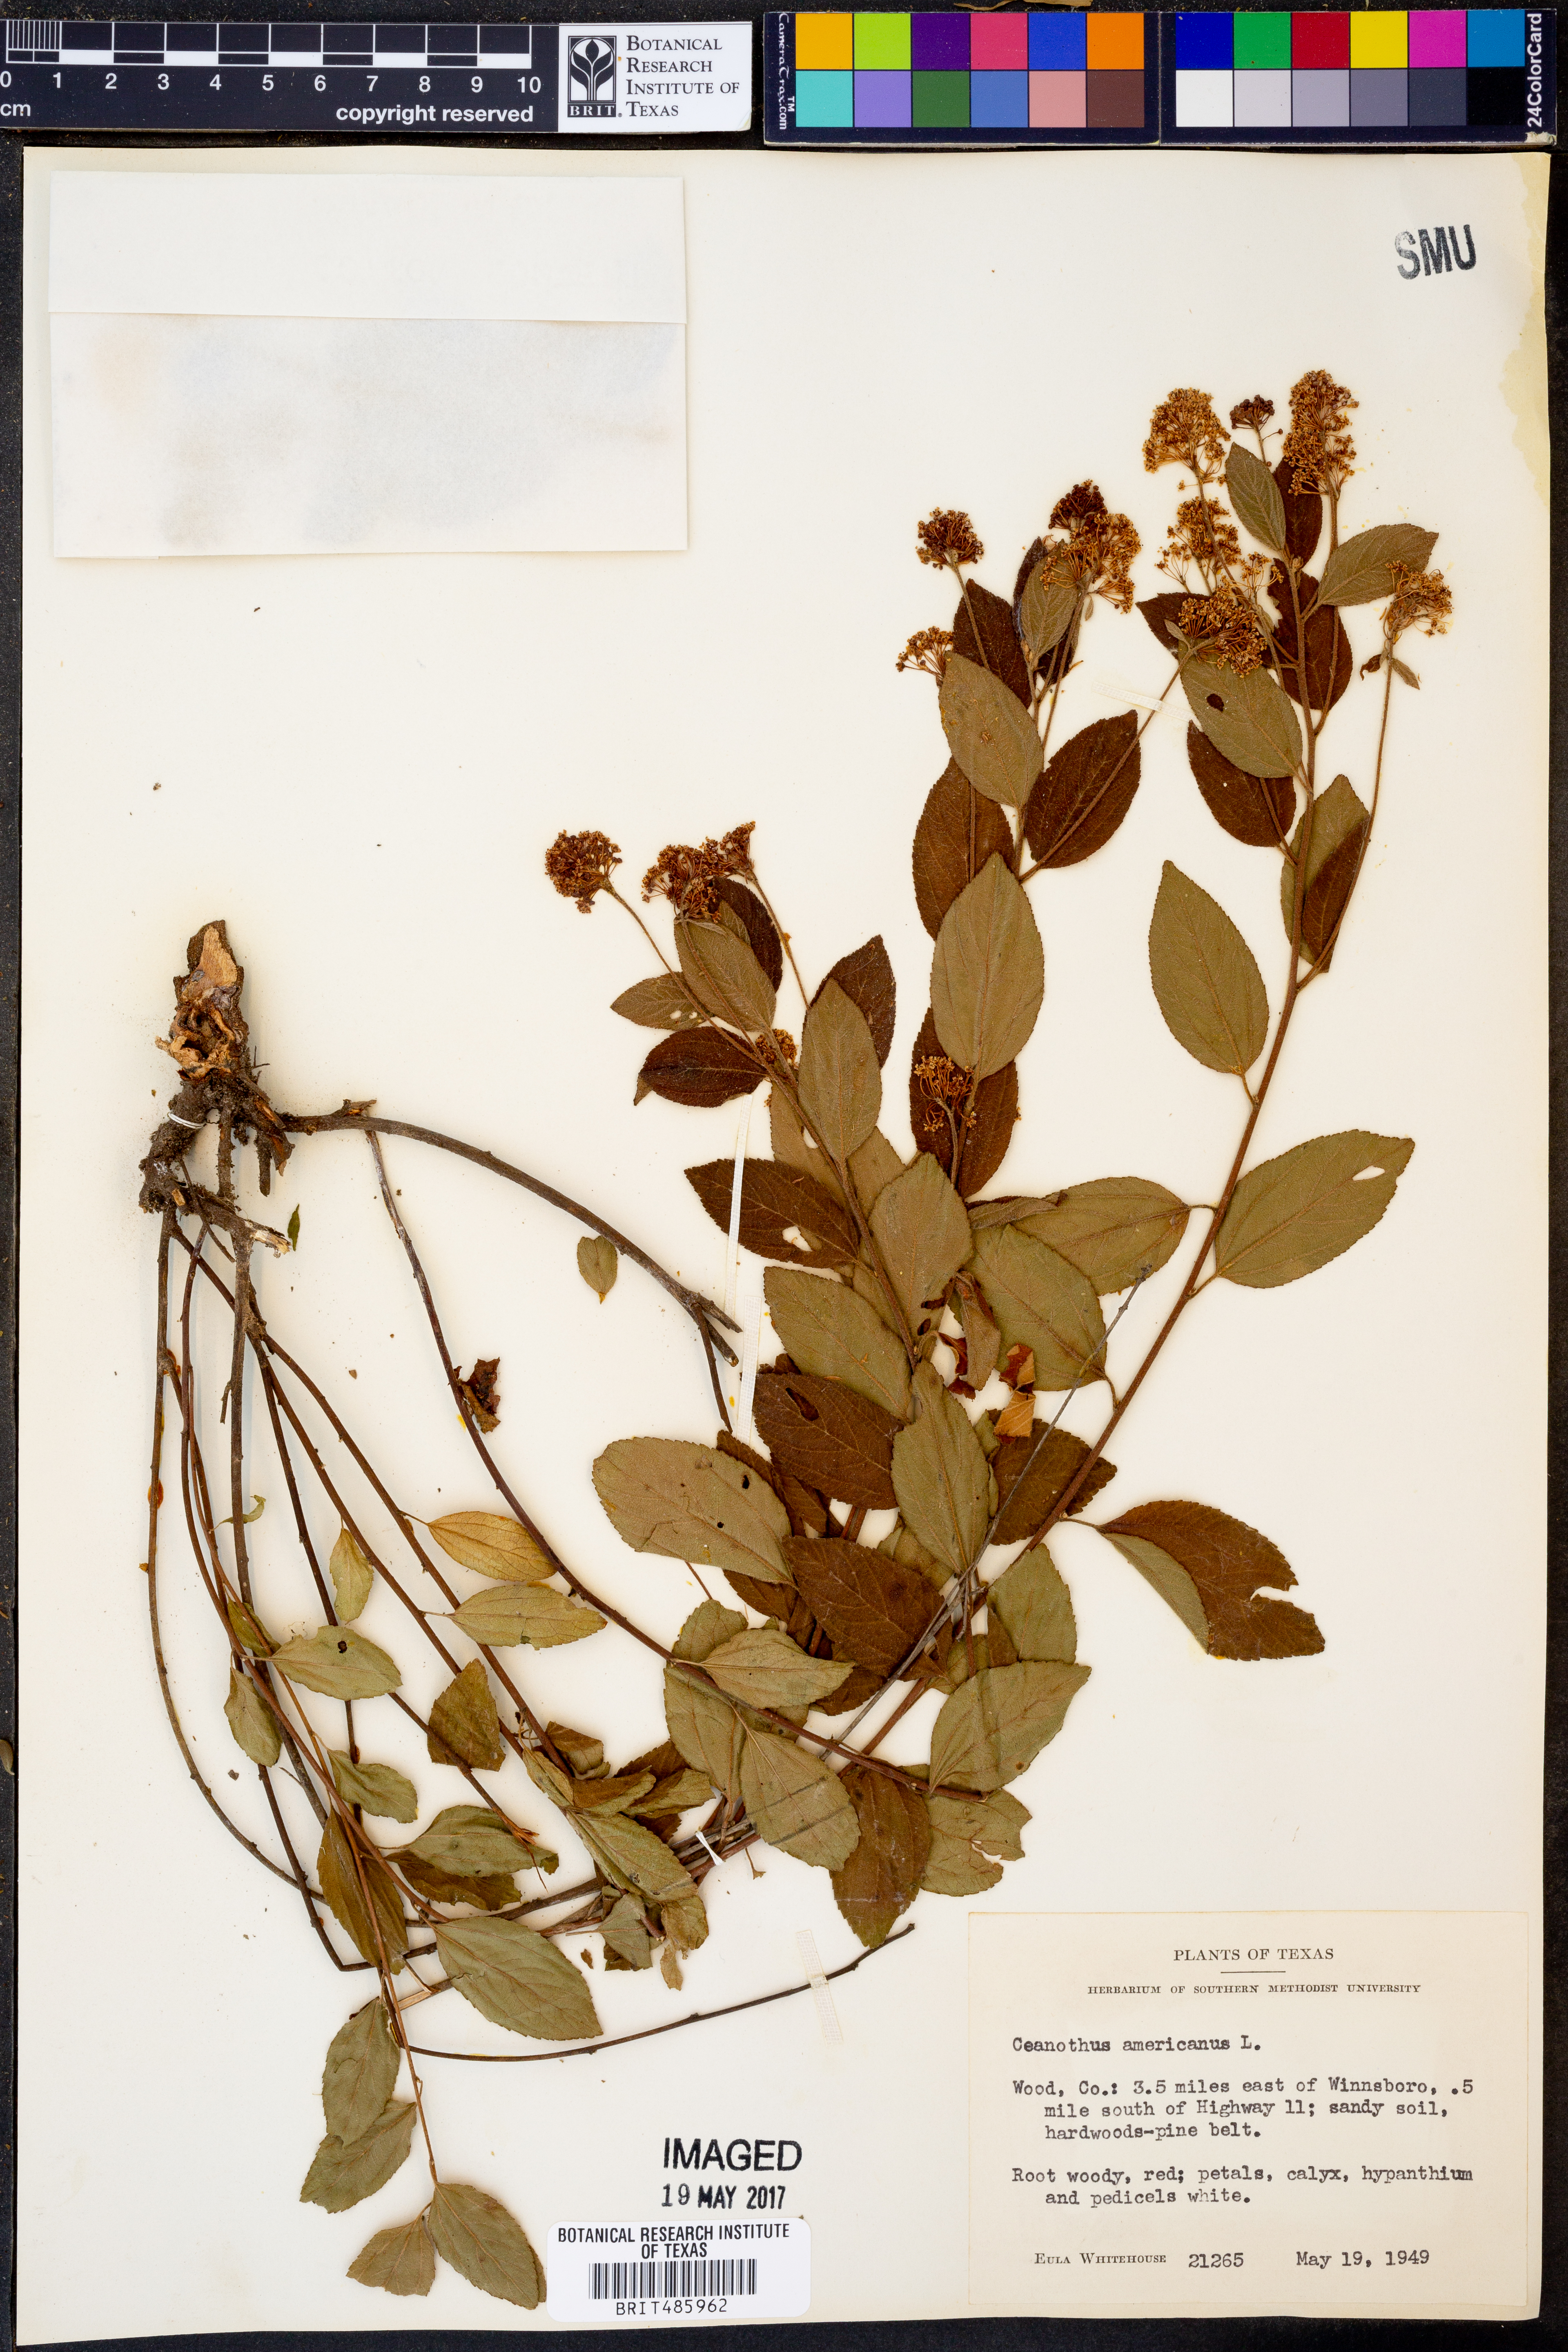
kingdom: Plantae
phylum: Tracheophyta
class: Magnoliopsida
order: Rosales
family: Rhamnaceae
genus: Ceanothus
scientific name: Ceanothus americanus
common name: Redroot
